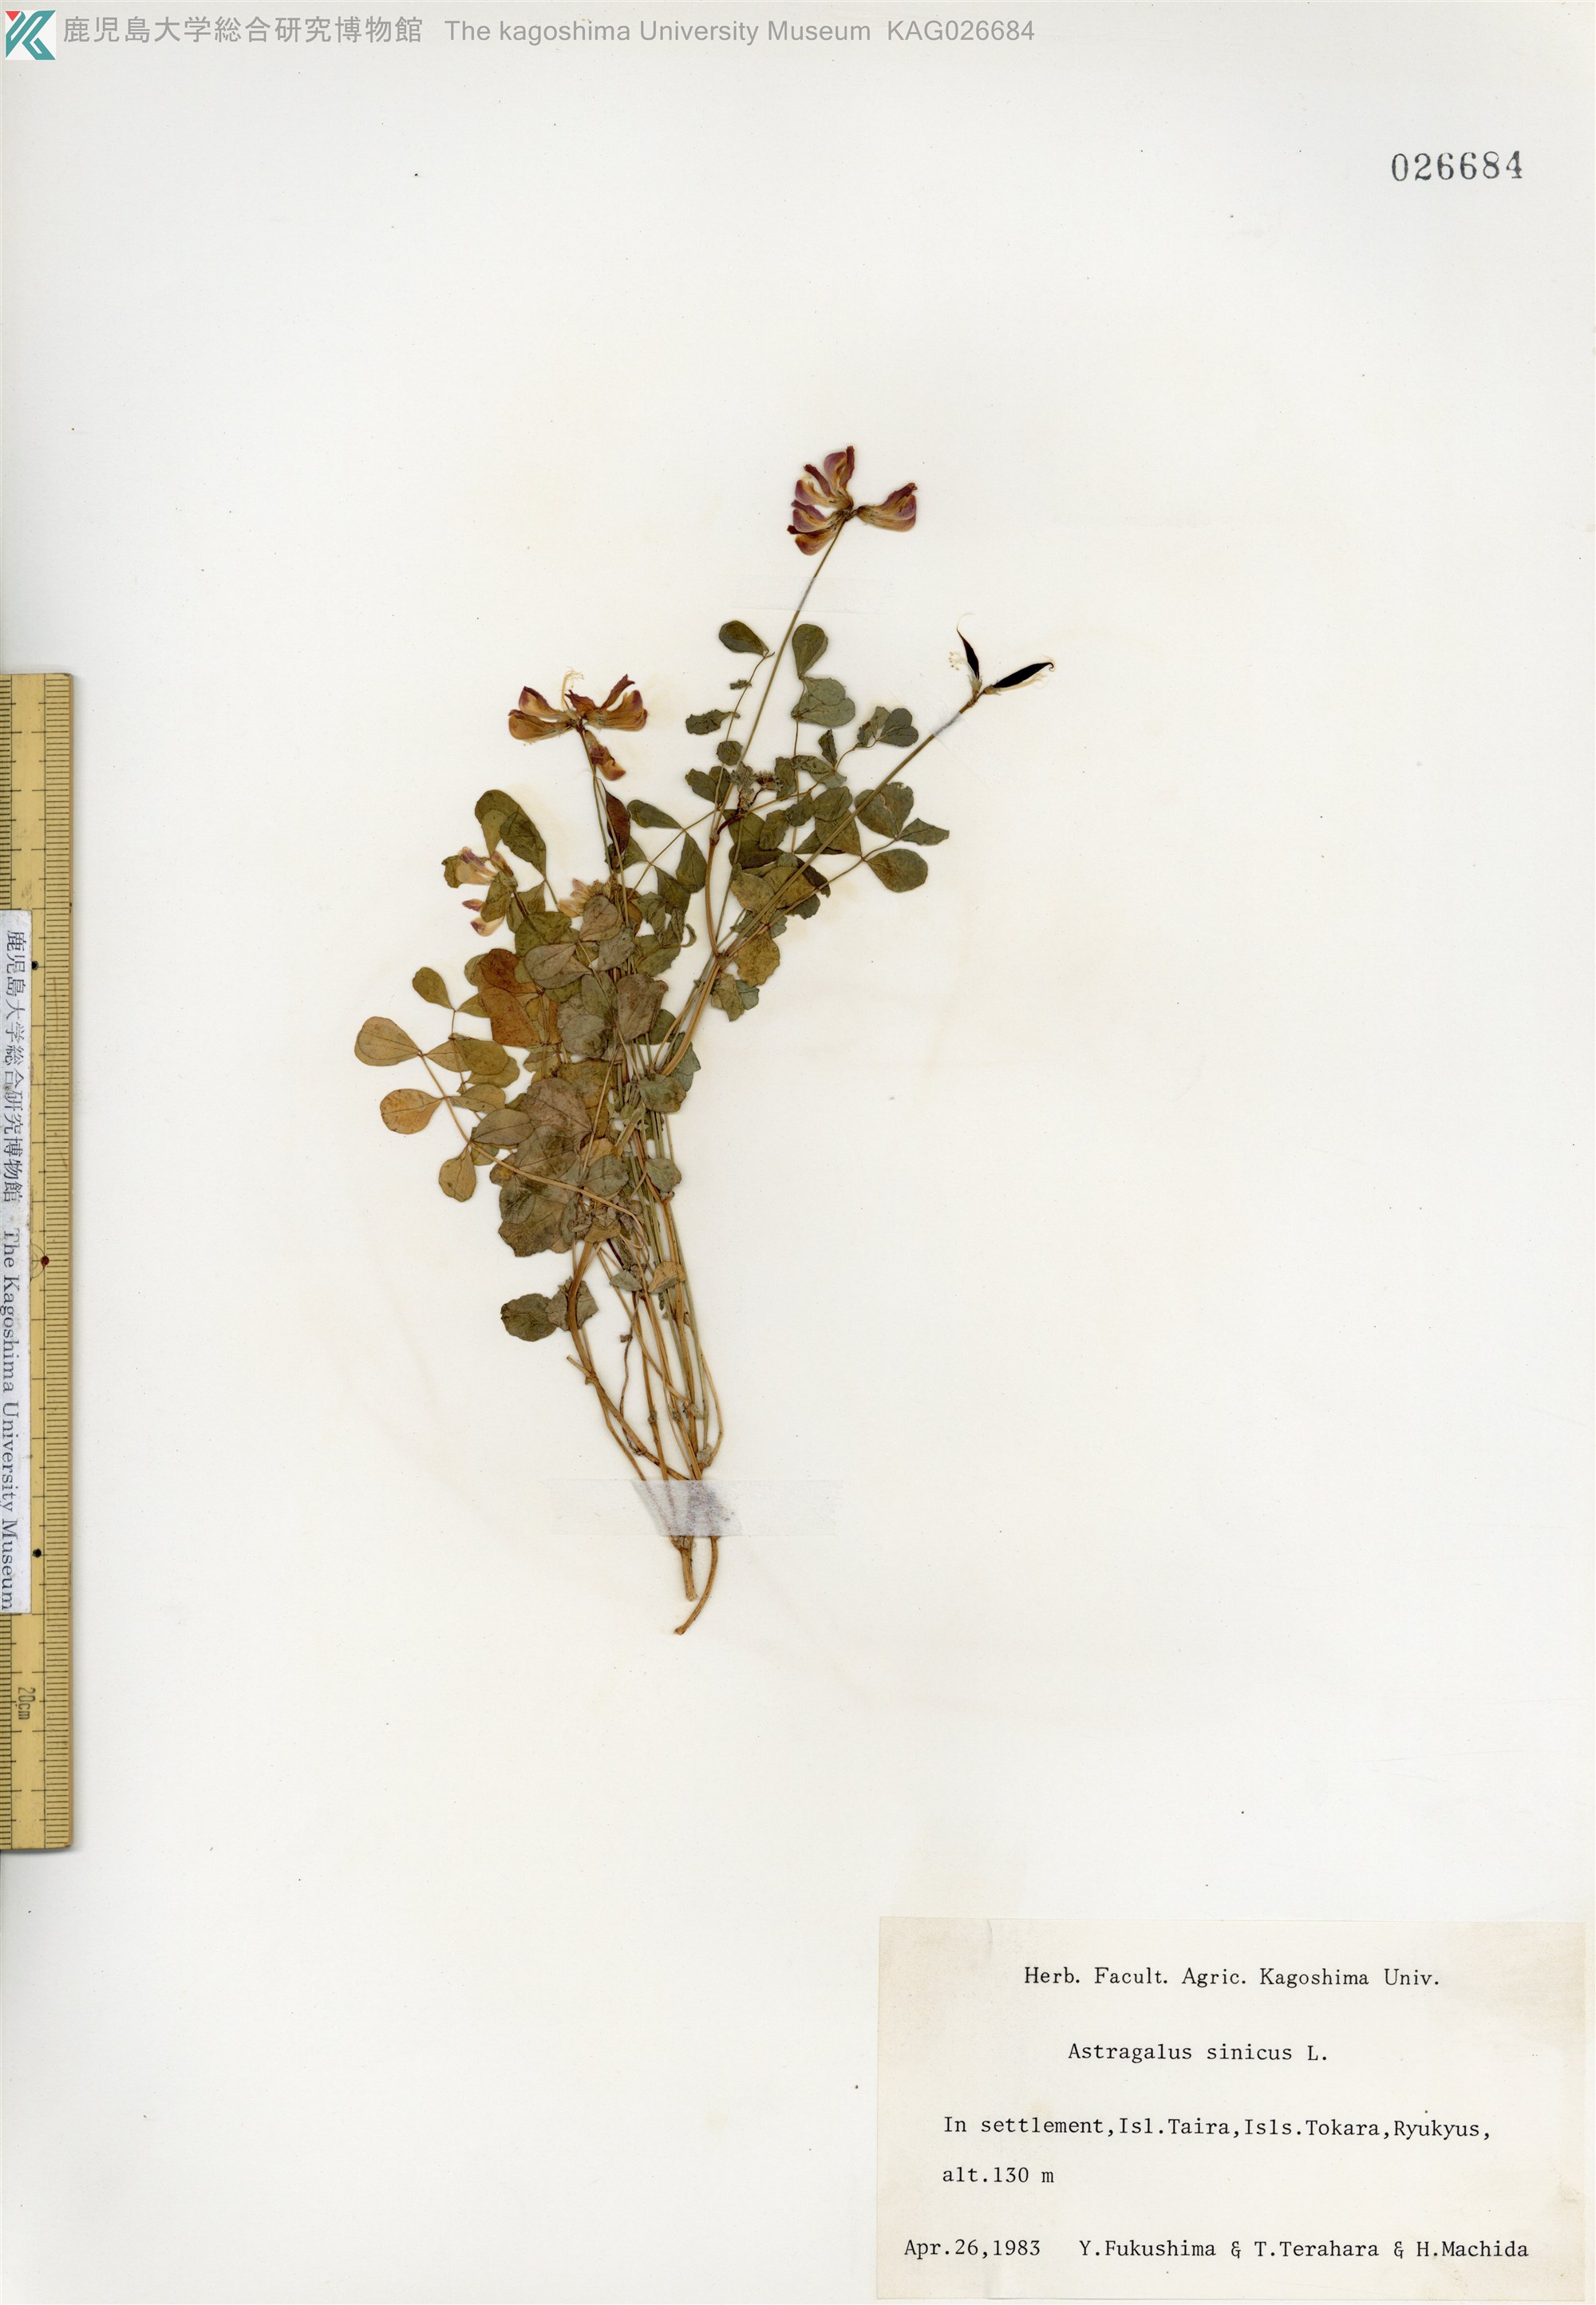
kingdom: Plantae
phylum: Tracheophyta
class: Magnoliopsida
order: Fabales
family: Fabaceae
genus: Astragalus
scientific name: Astragalus sinicus
